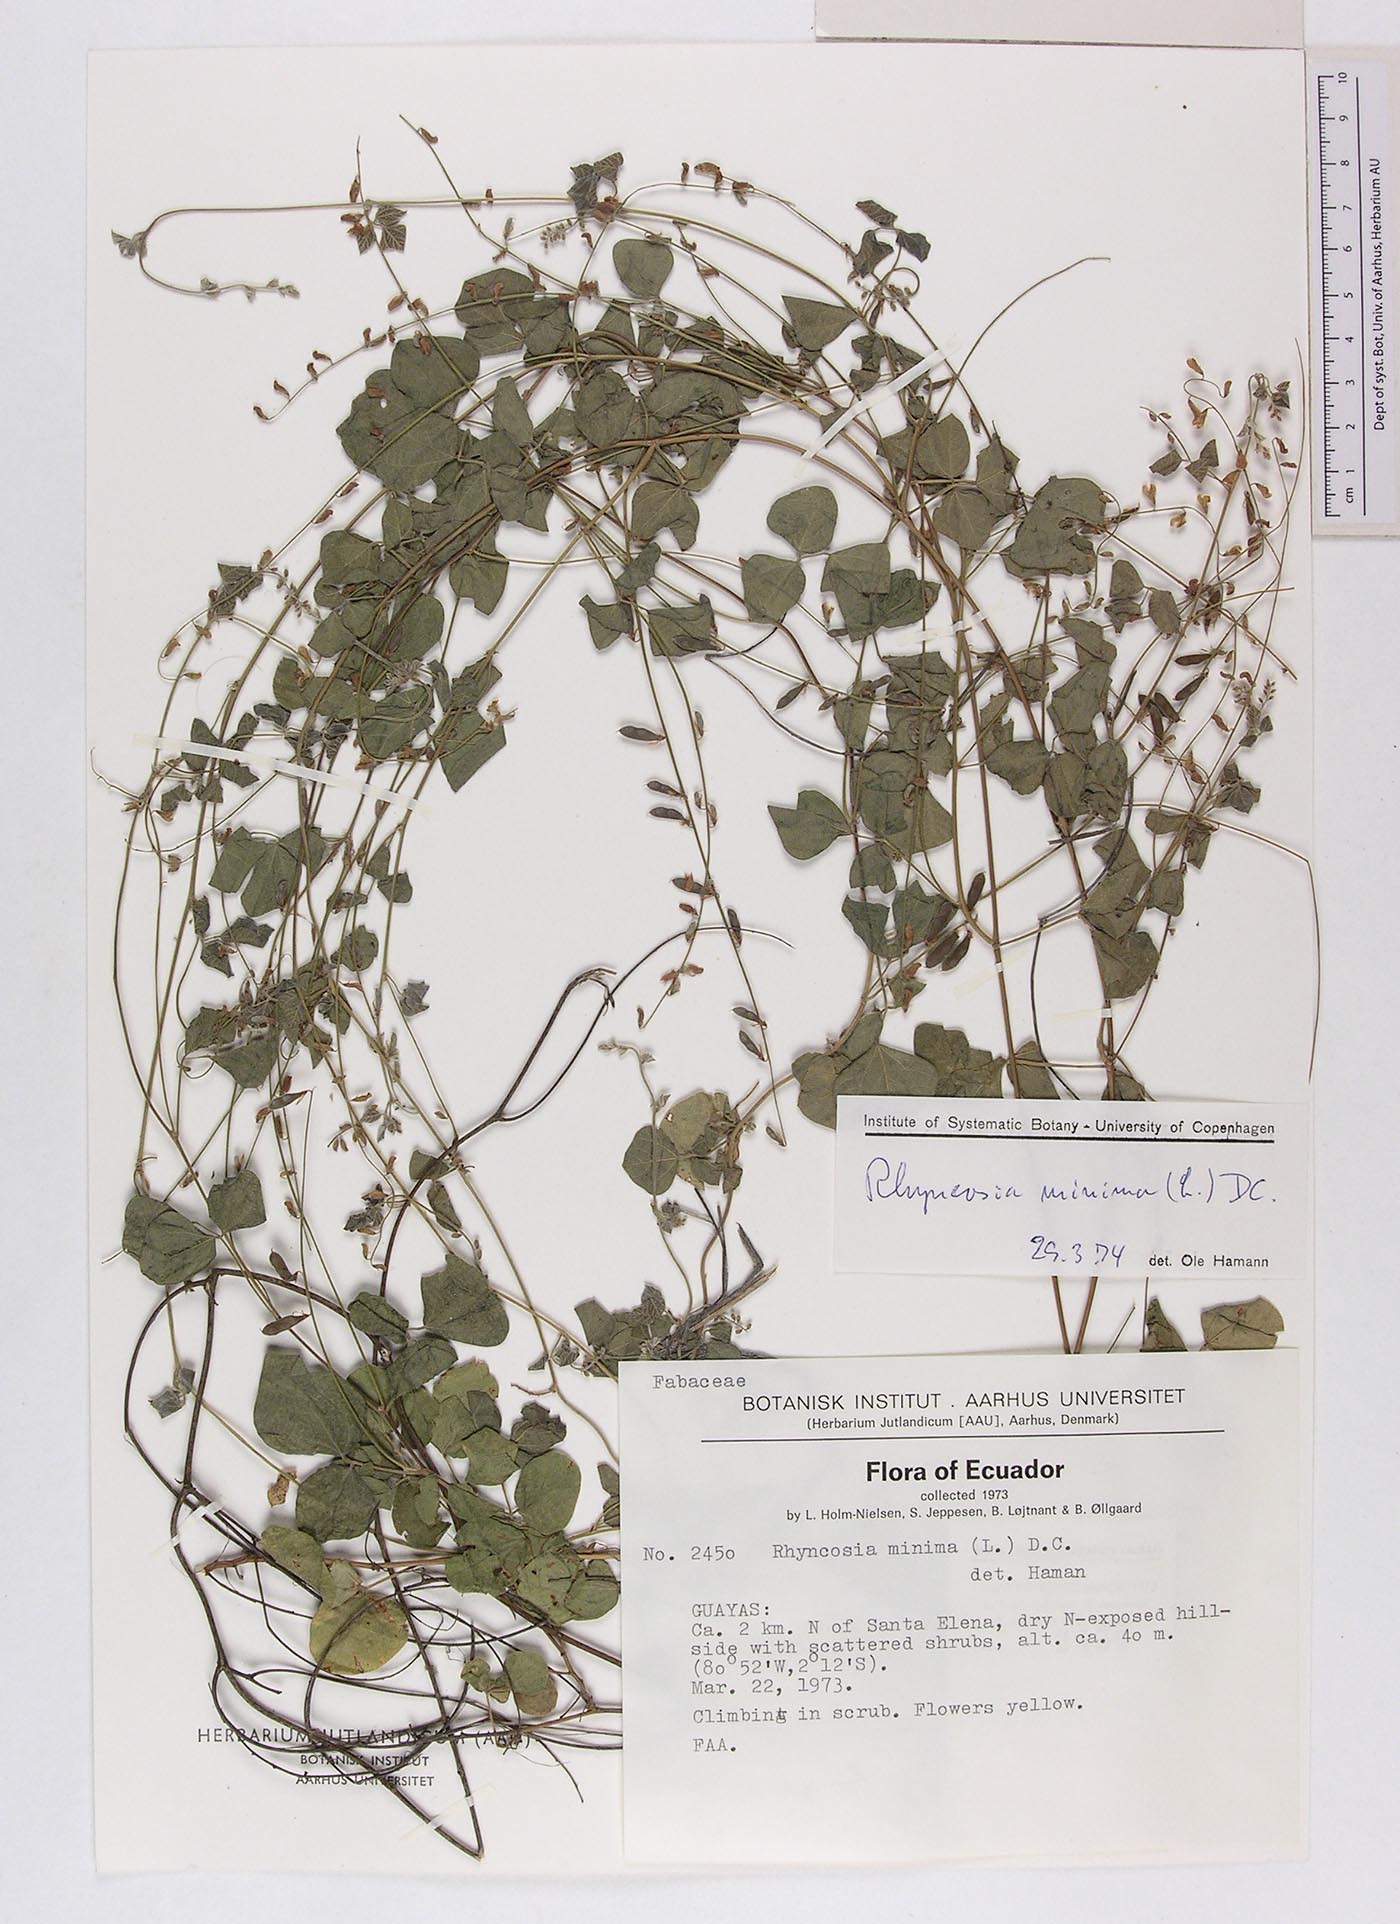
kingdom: Plantae
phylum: Tracheophyta
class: Magnoliopsida
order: Fabales
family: Fabaceae
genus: Rhynchosia
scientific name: Rhynchosia minima
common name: Least snoutbean
